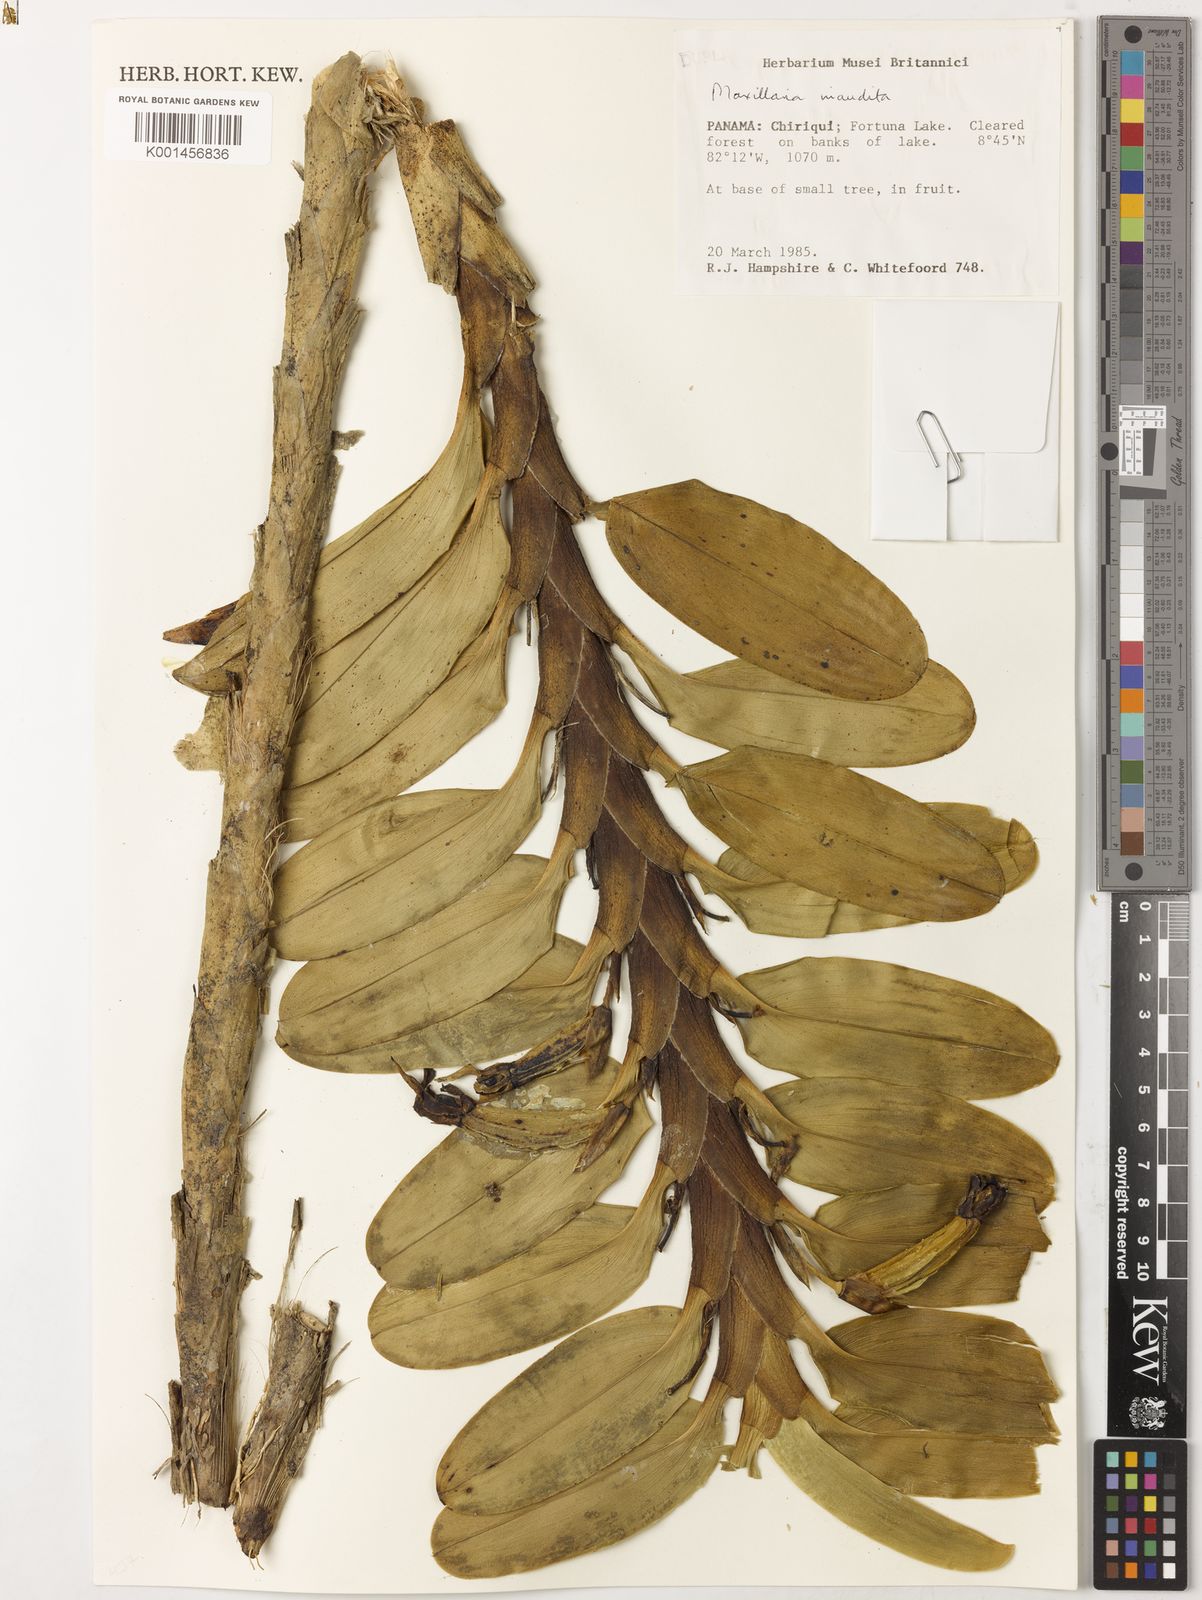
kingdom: Plantae
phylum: Tracheophyta
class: Liliopsida
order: Asparagales
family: Orchidaceae
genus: Maxillaria
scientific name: Maxillaria inaudita
